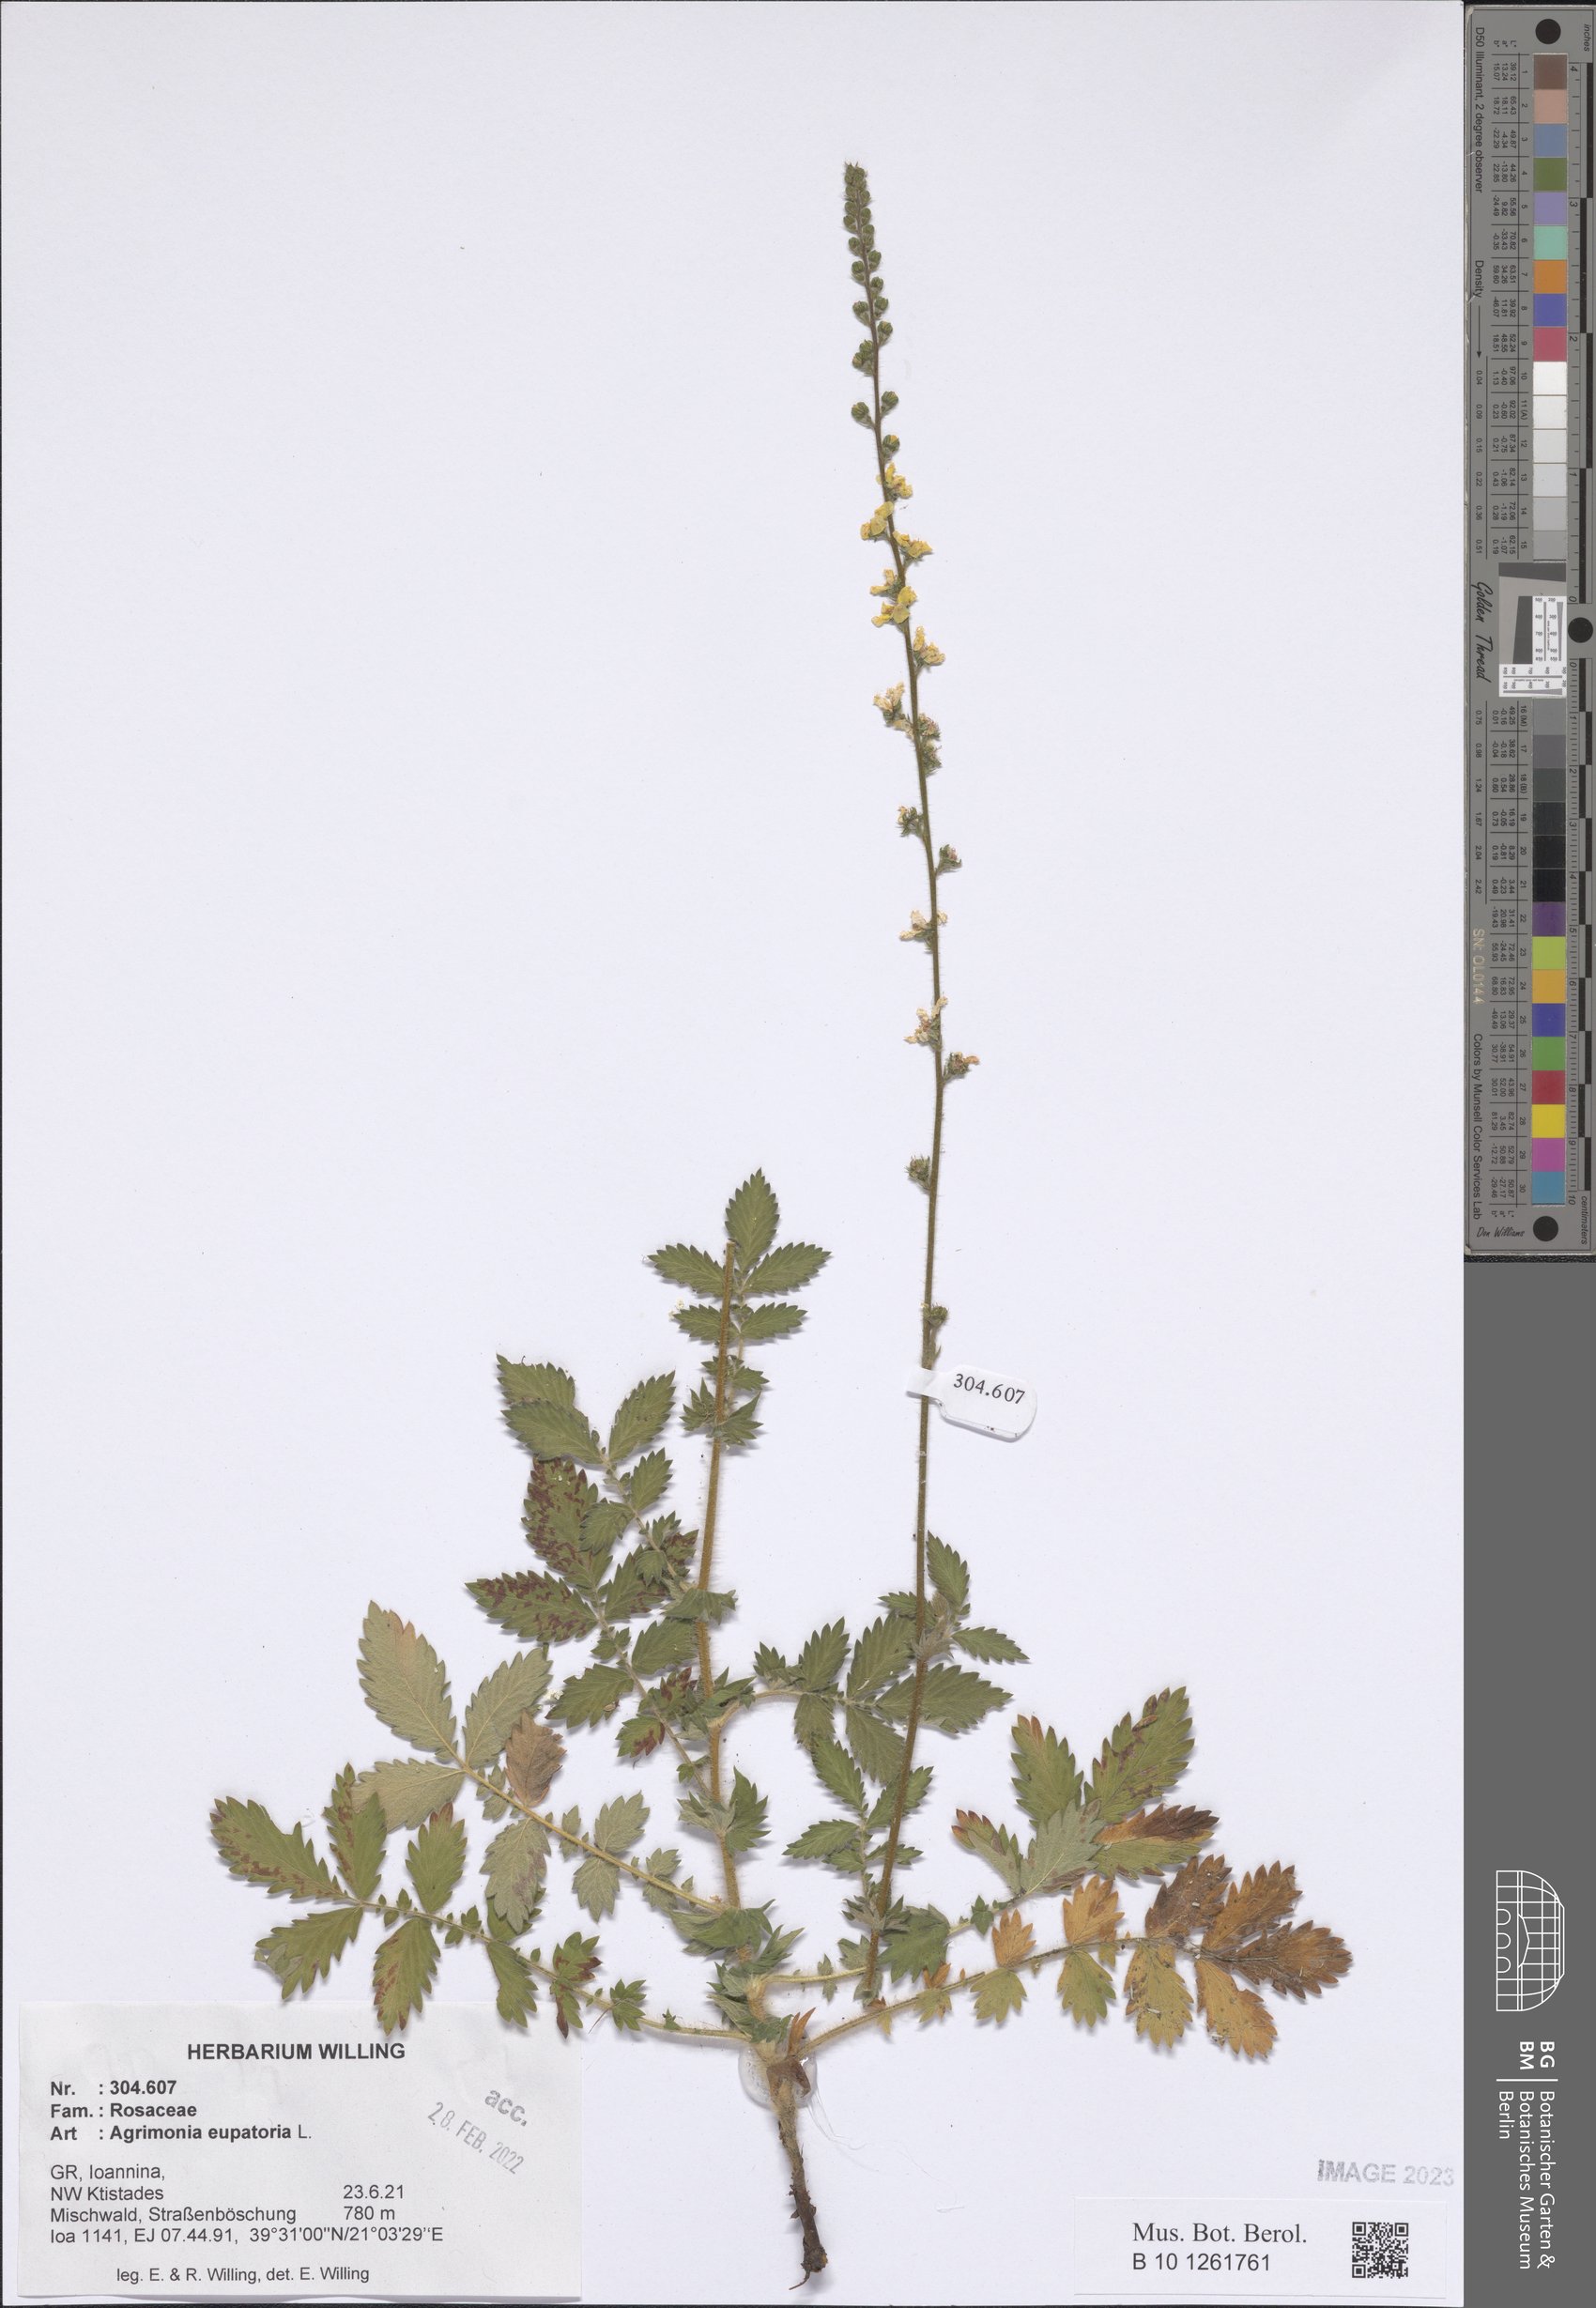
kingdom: Plantae
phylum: Tracheophyta
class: Magnoliopsida
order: Rosales
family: Rosaceae
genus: Agrimonia
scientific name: Agrimonia eupatoria
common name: Agrimony
